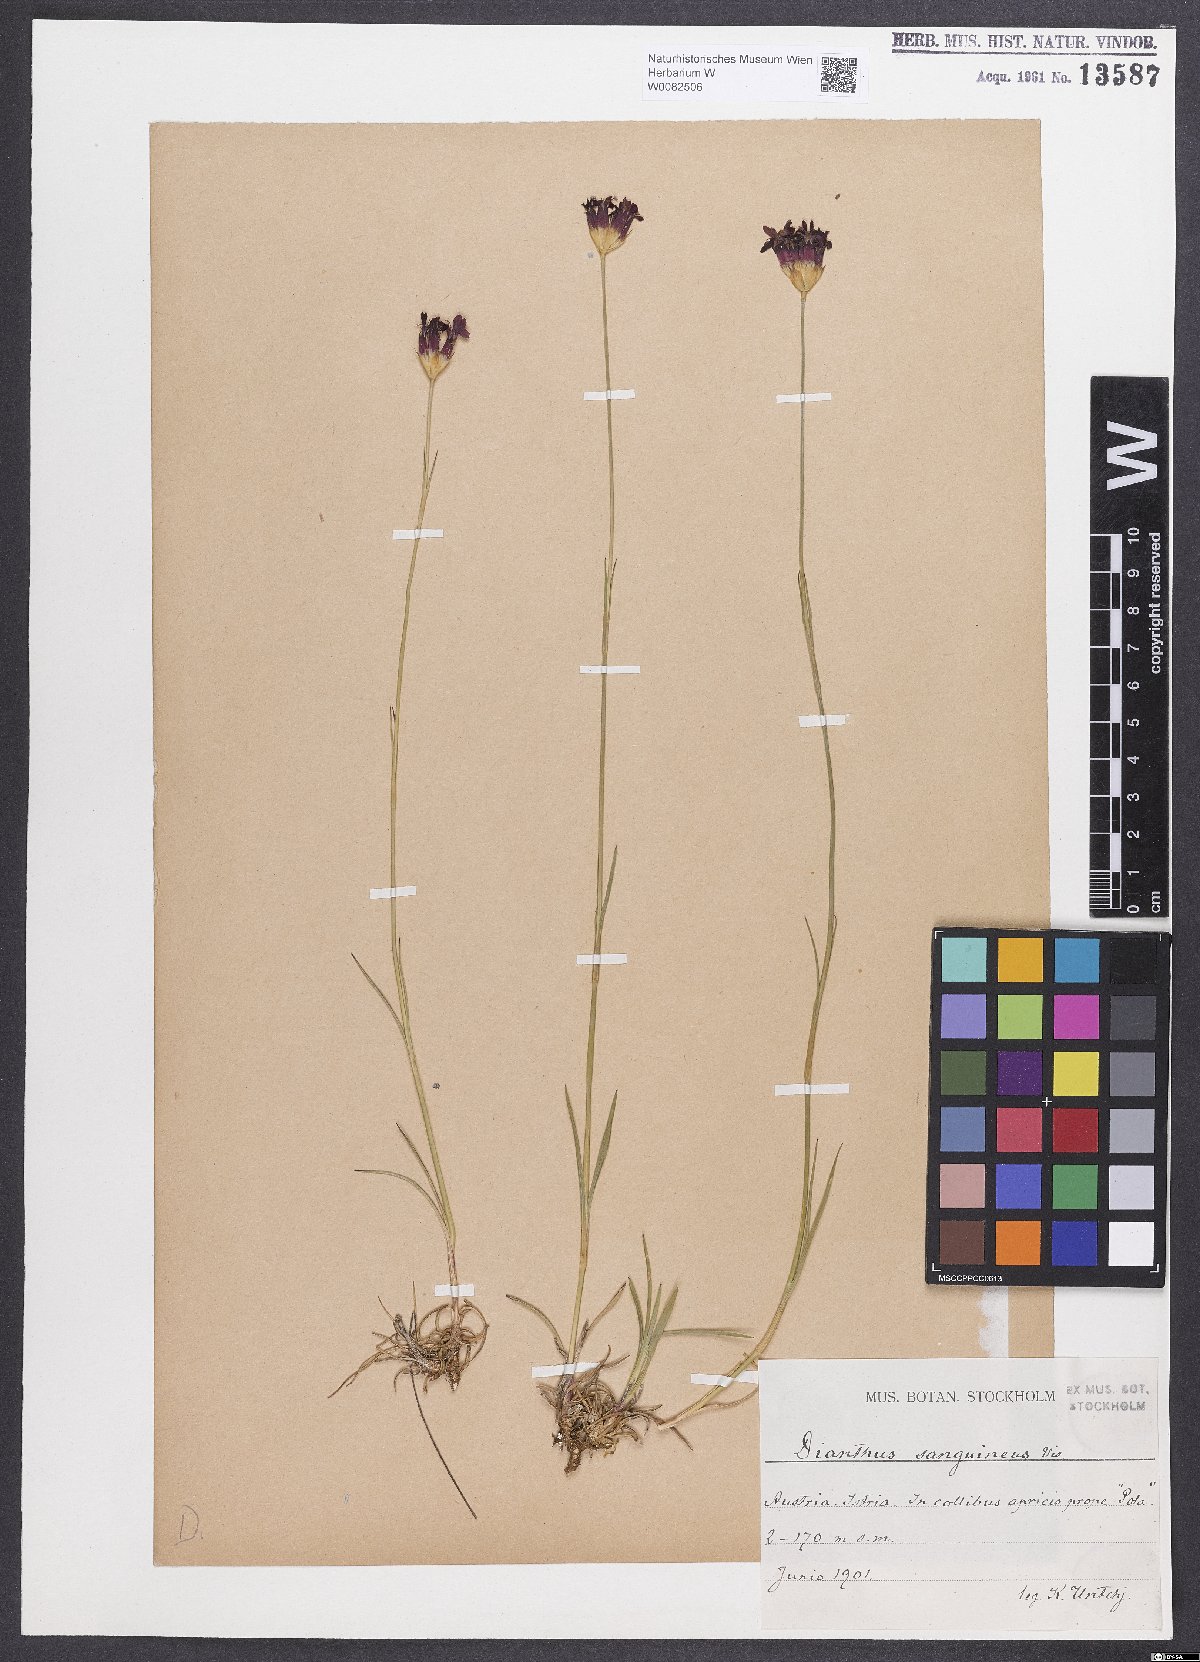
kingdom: Plantae
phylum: Tracheophyta
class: Magnoliopsida
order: Caryophyllales
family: Caryophyllaceae
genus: Dianthus
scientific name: Dianthus carthusianorum
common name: Carthusian pink
